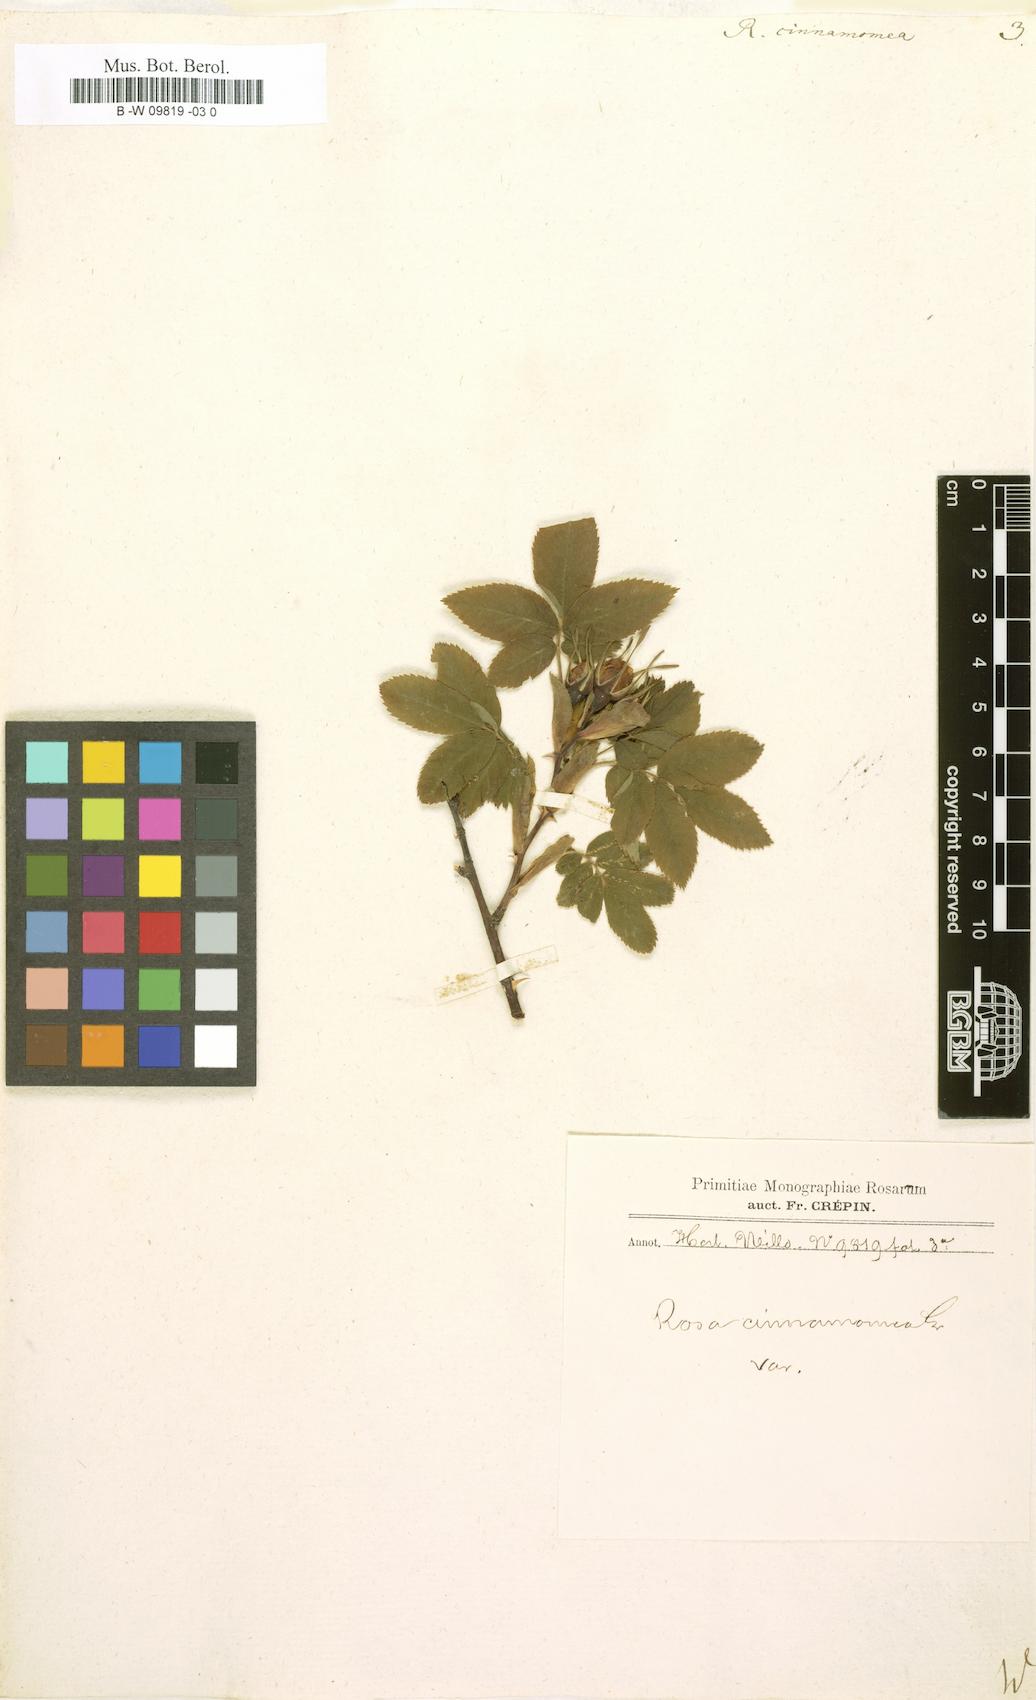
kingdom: Plantae
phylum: Tracheophyta
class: Magnoliopsida
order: Rosales
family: Rosaceae
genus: Rosa
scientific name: Rosa pendulina
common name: Alpine rose
